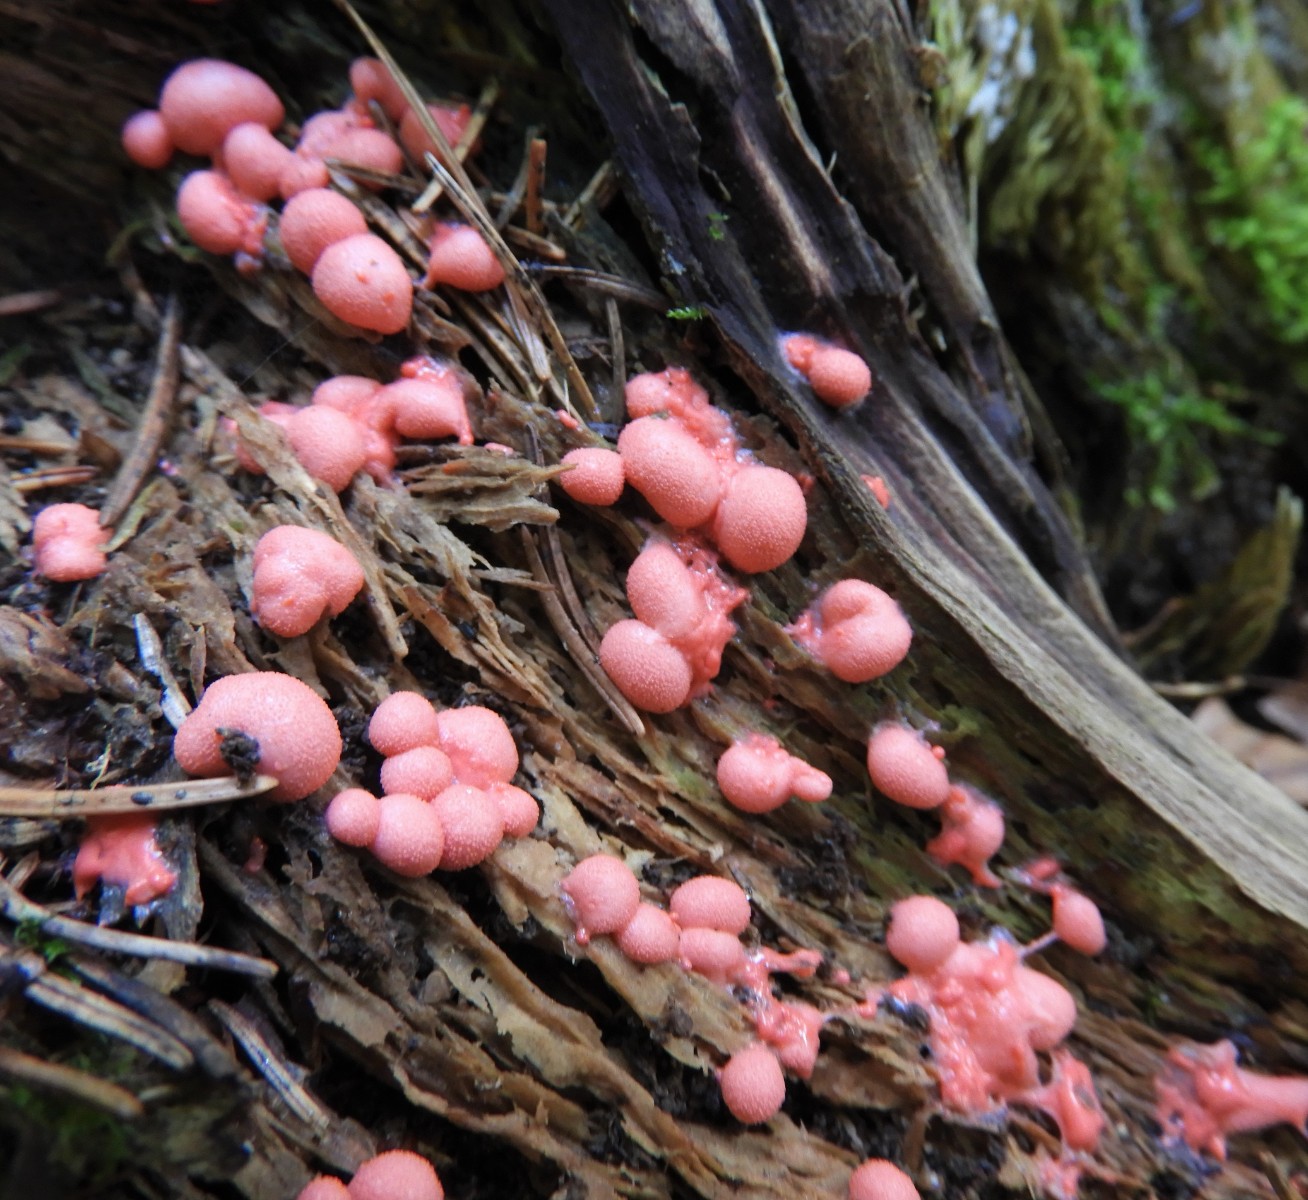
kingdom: Protozoa
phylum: Mycetozoa
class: Myxomycetes
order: Cribrariales
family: Tubiferaceae
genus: Lycogala
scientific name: Lycogala epidendrum
